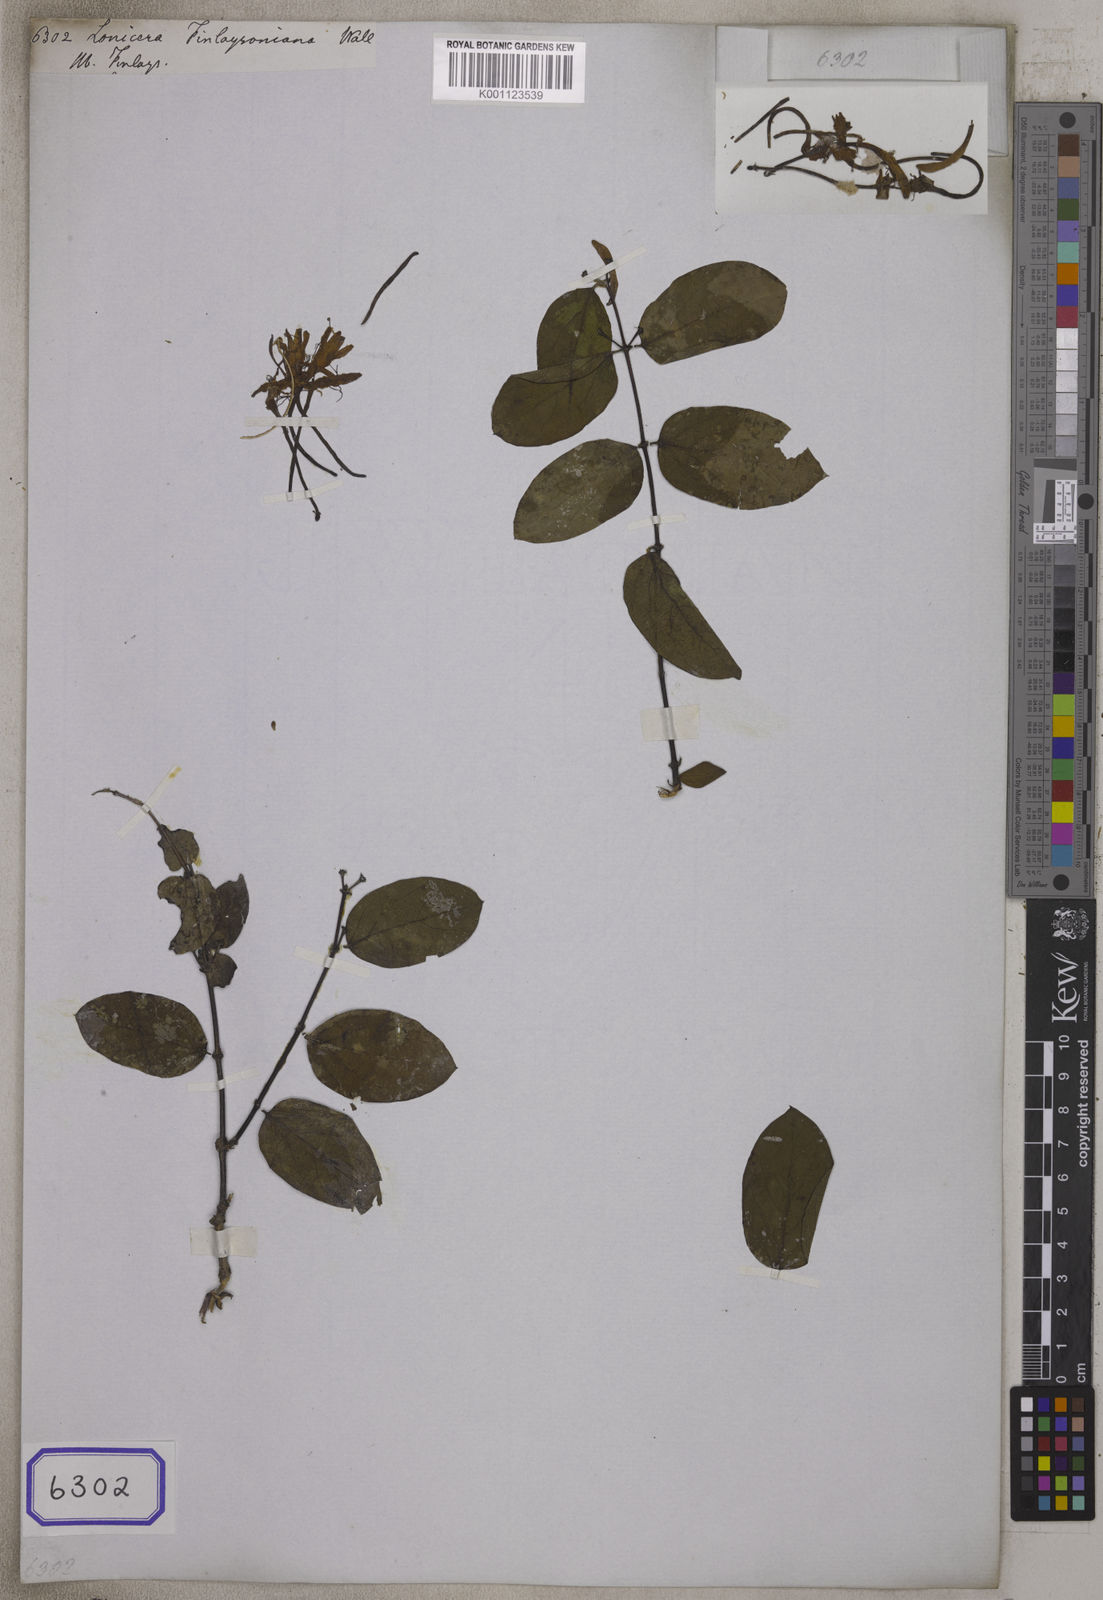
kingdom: Plantae
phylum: Tracheophyta
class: Magnoliopsida
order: Dipsacales
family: Caprifoliaceae
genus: Lonicera
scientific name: Lonicera japonica
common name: Japanese honeysuckle
